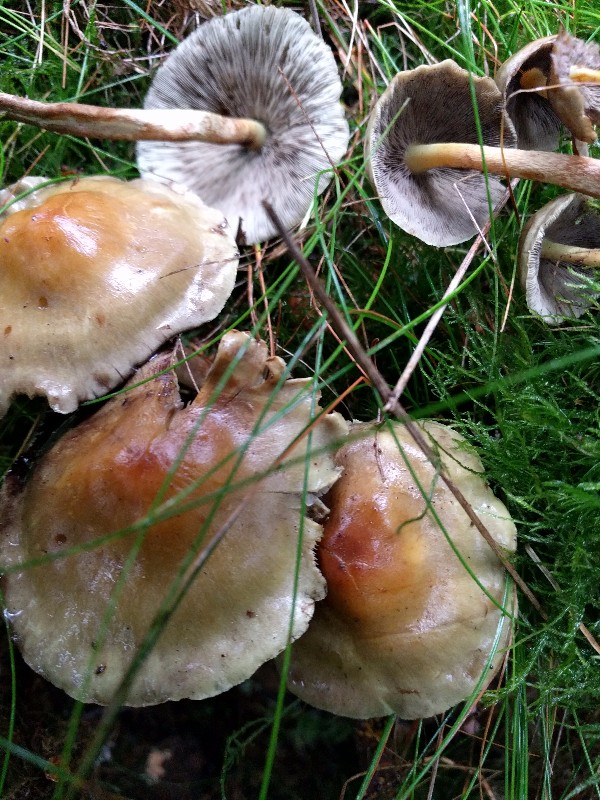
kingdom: Fungi
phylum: Basidiomycota
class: Agaricomycetes
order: Agaricales
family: Strophariaceae
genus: Hypholoma
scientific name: Hypholoma fasciculare
